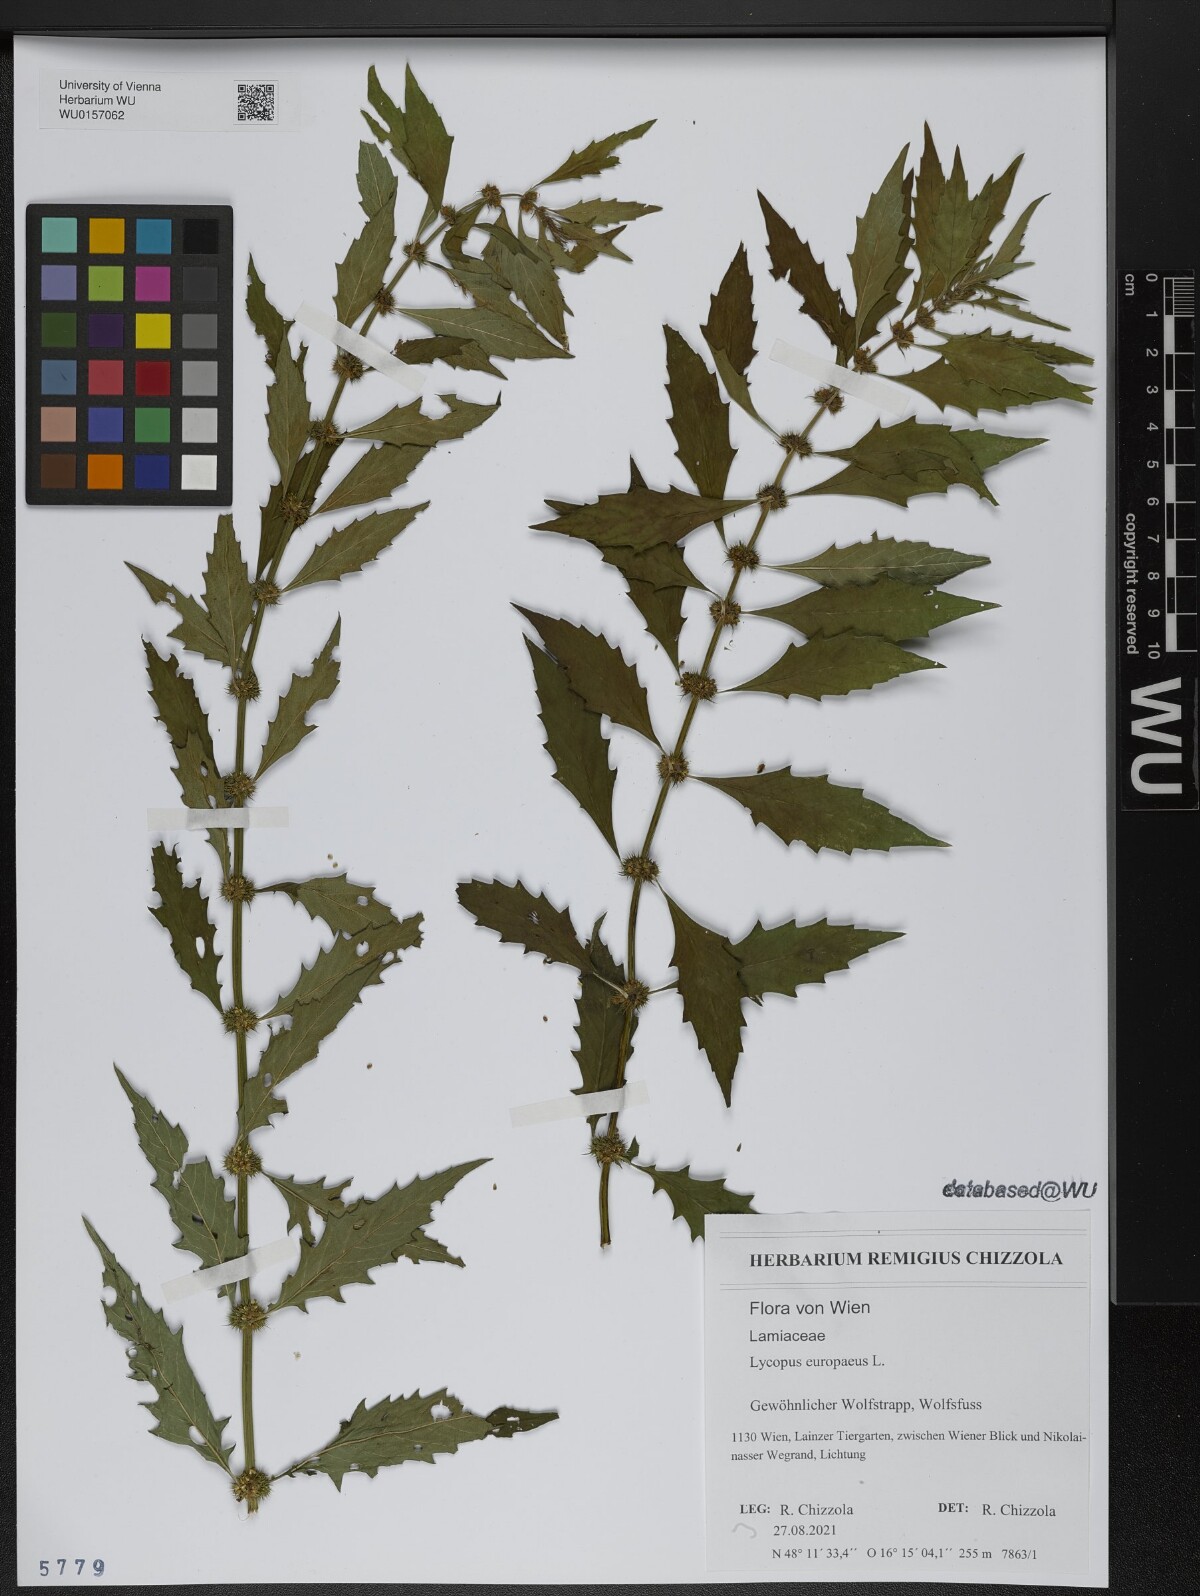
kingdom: Plantae
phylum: Tracheophyta
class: Magnoliopsida
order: Lamiales
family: Lamiaceae
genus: Lycopus
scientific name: Lycopus europaeus
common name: European bugleweed
